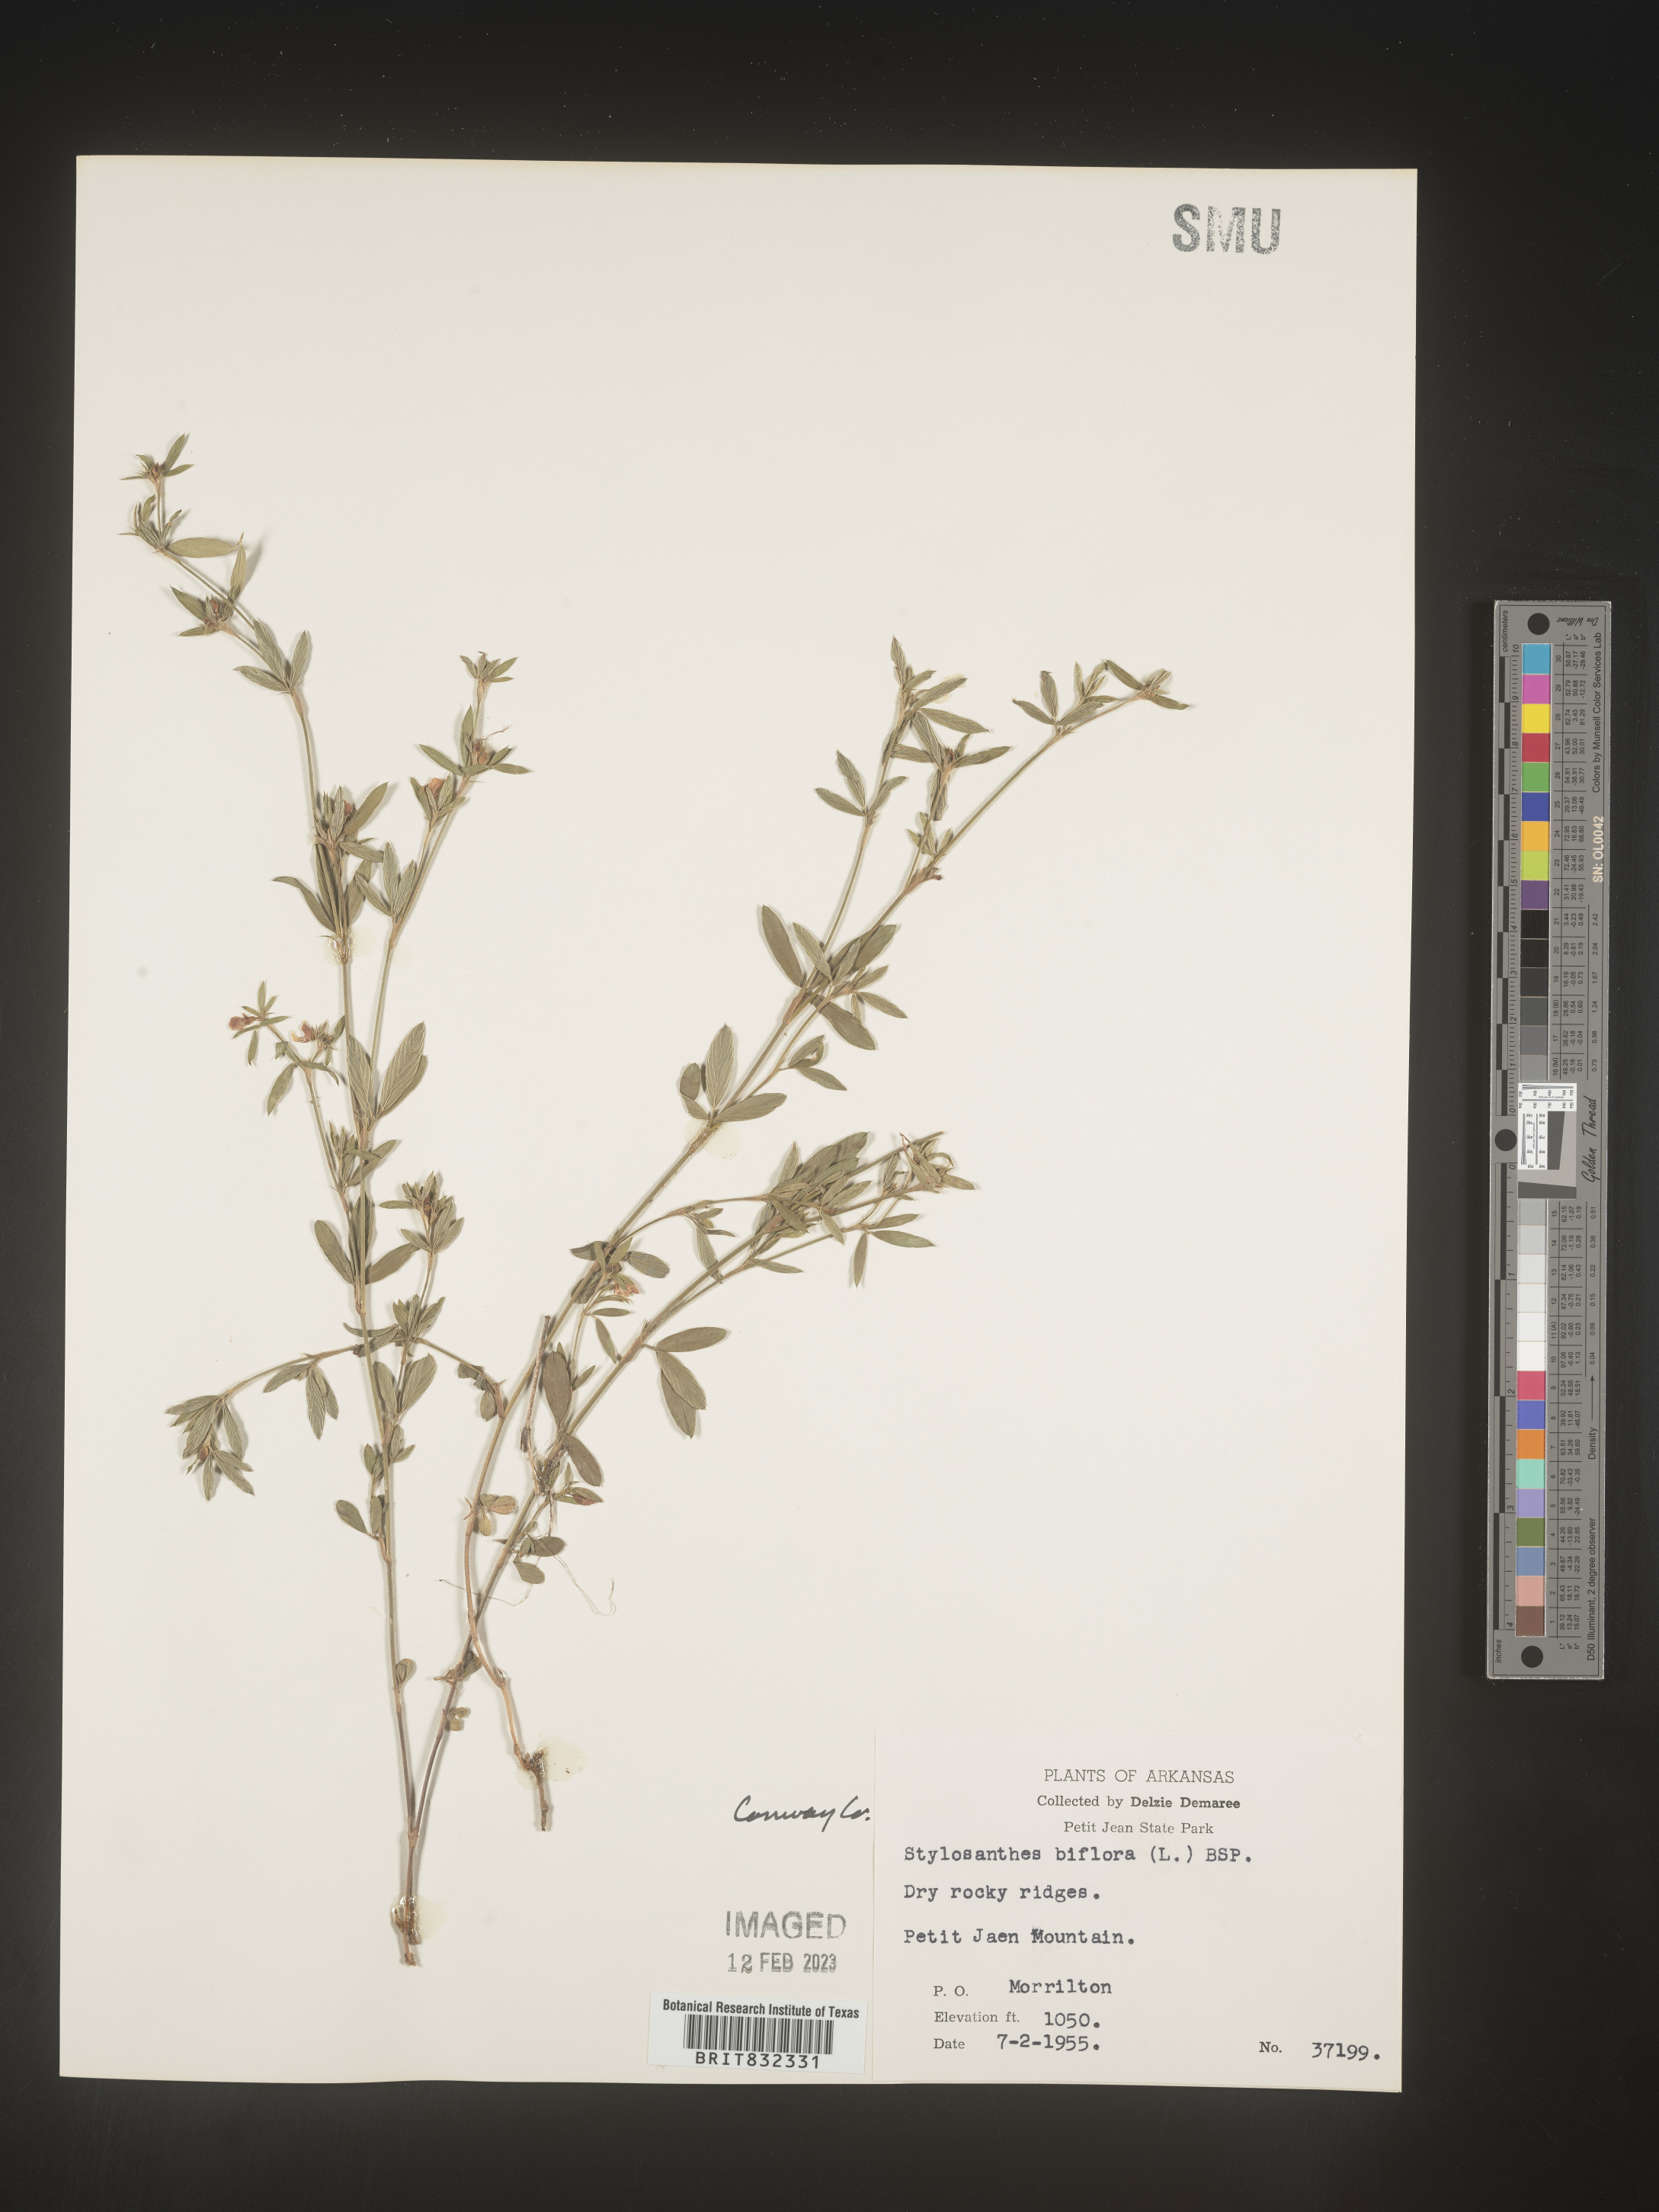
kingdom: Plantae
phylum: Tracheophyta
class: Magnoliopsida
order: Fabales
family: Fabaceae
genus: Stylosanthes
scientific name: Stylosanthes biflora
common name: Two-flower pencil-flower
